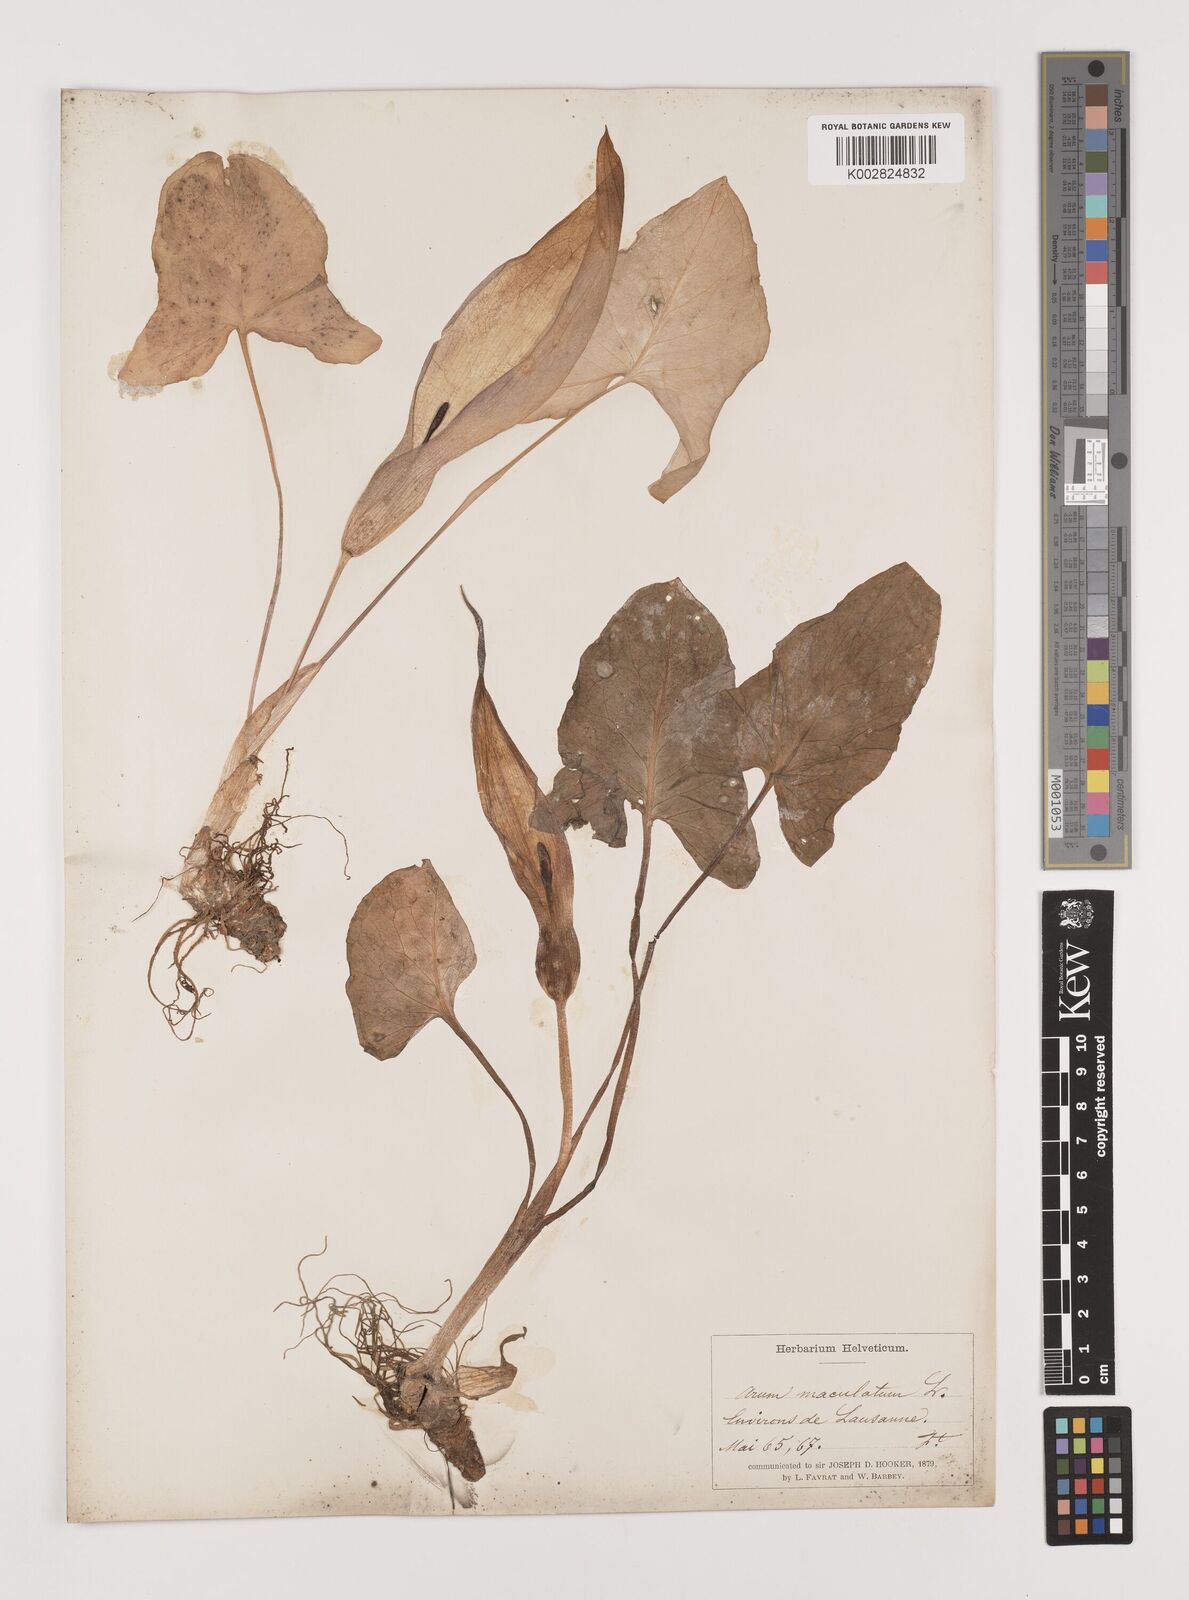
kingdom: Plantae
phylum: Tracheophyta
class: Liliopsida
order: Alismatales
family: Araceae
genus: Arum
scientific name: Arum maculatum
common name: Lords-and-ladies
